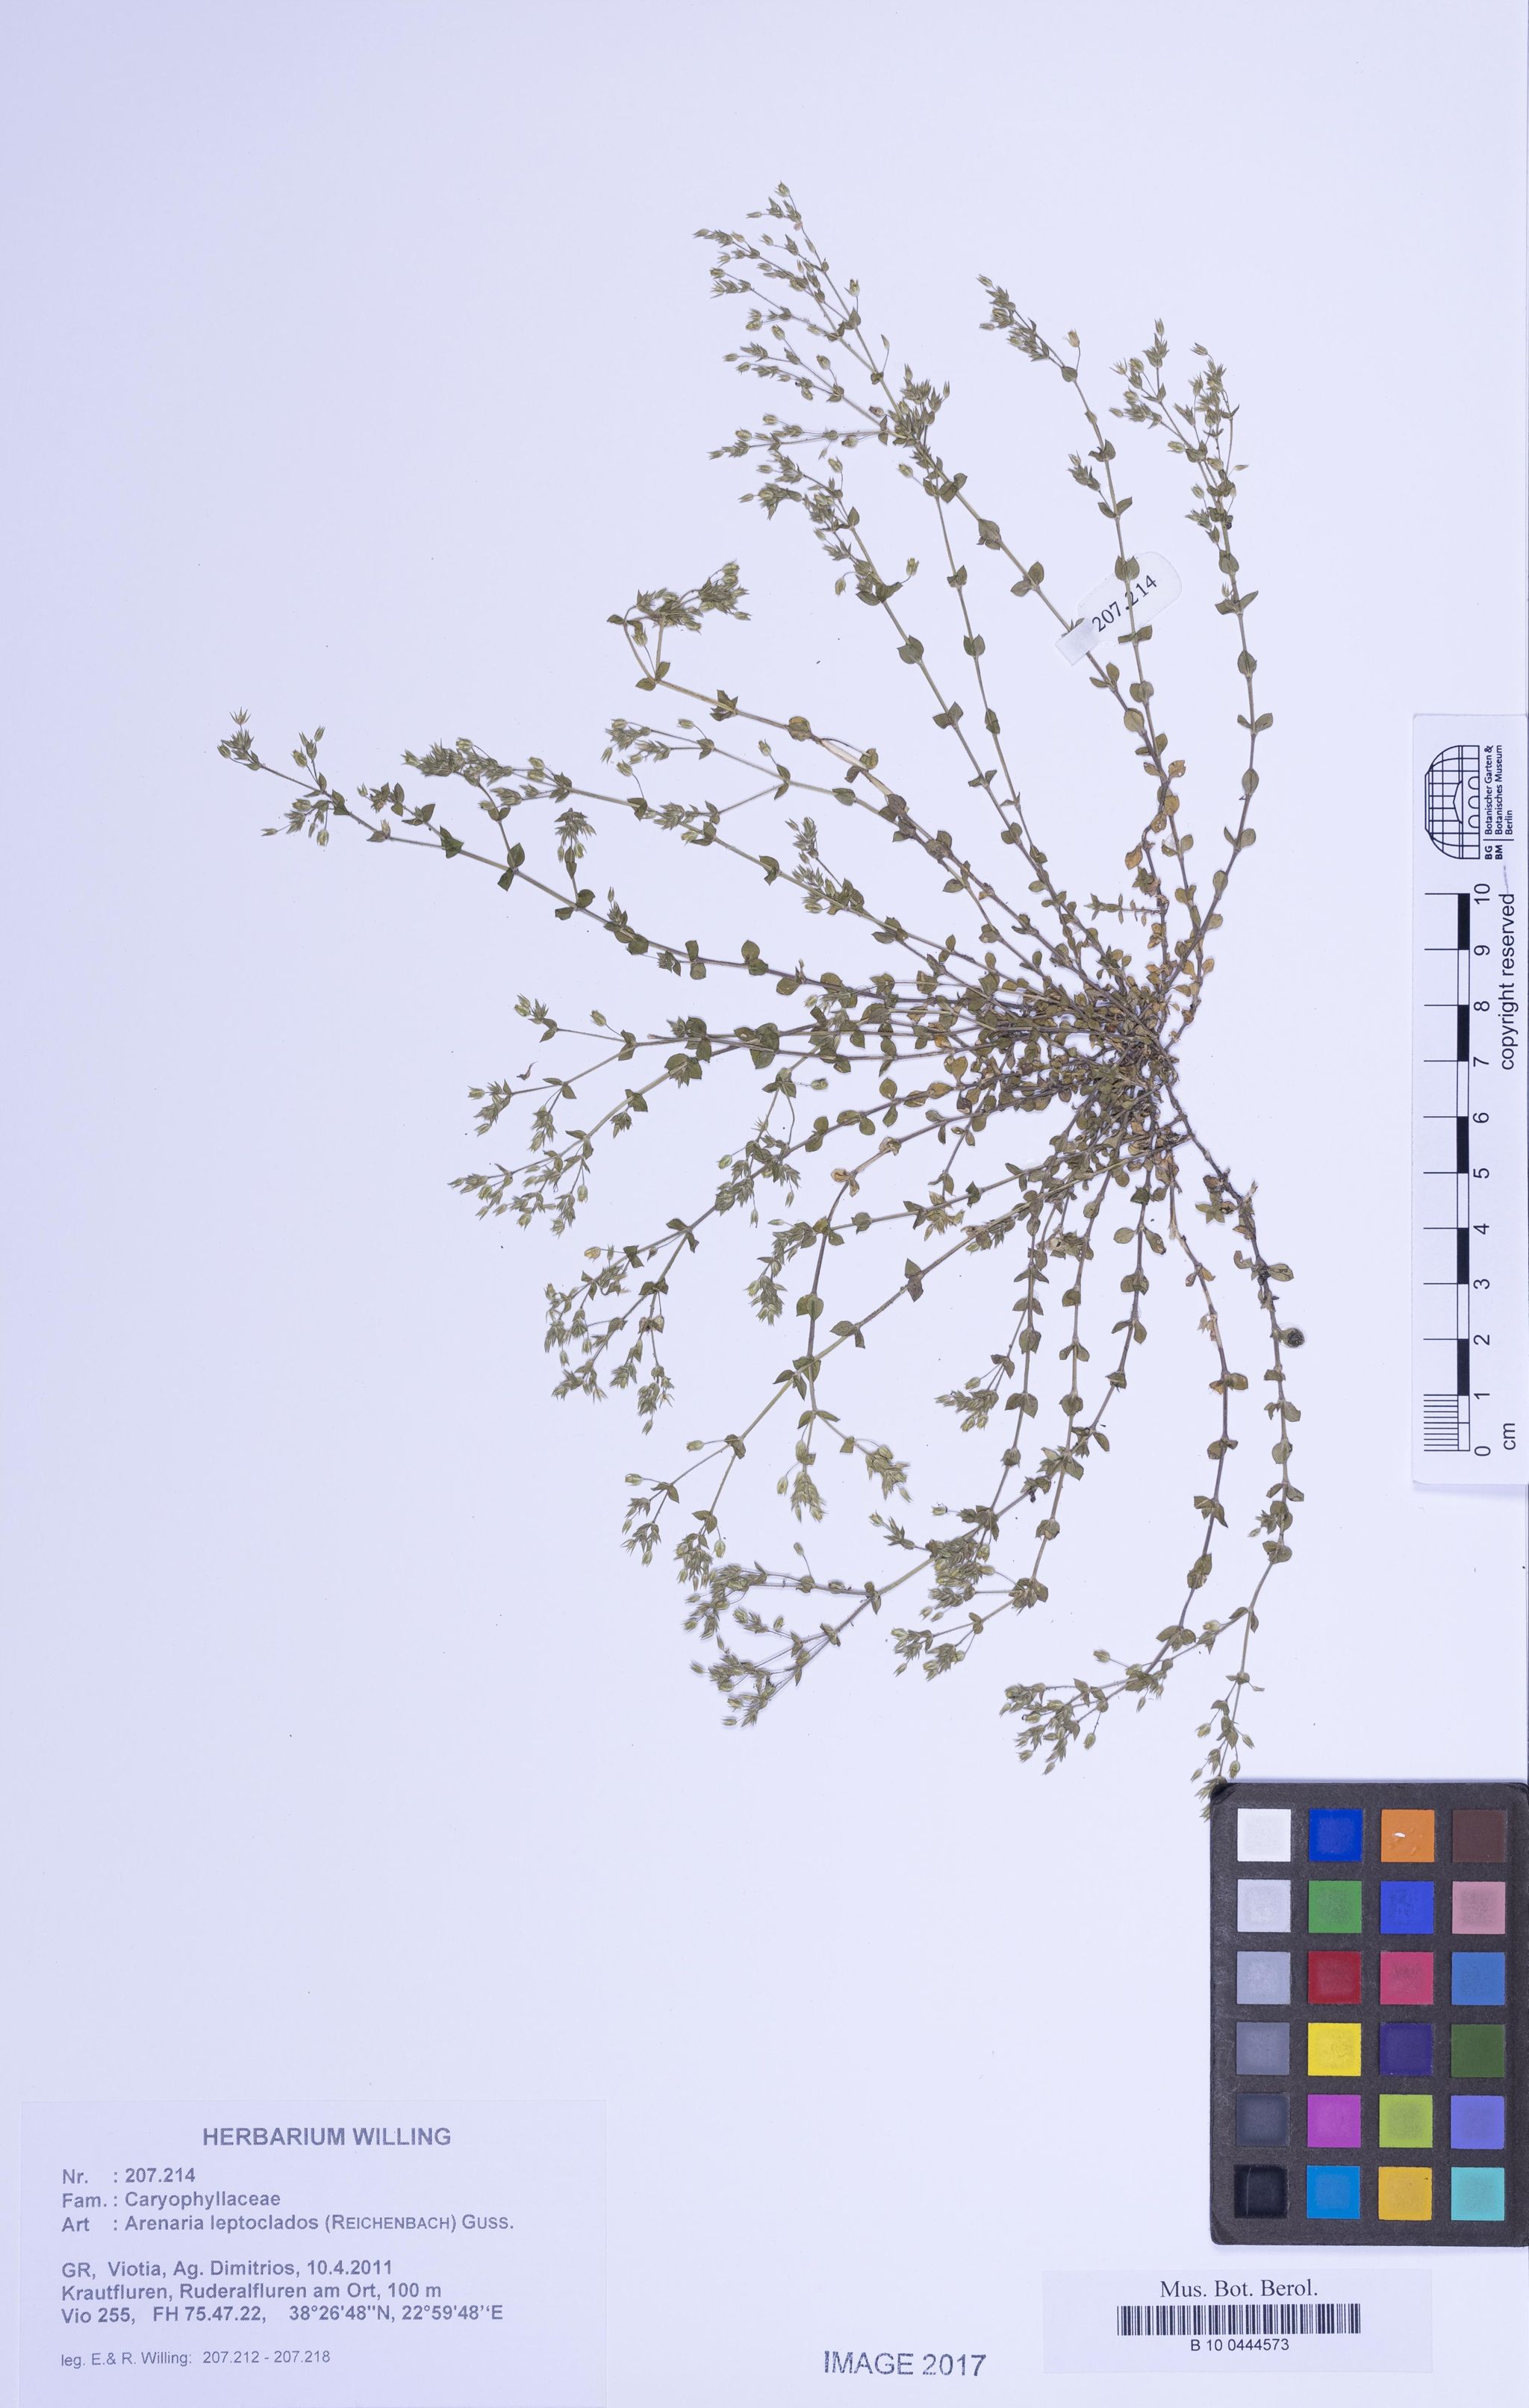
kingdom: Plantae
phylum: Tracheophyta
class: Magnoliopsida
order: Caryophyllales
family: Caryophyllaceae
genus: Arenaria
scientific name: Arenaria leptoclados
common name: Thyme-leaved sandwort
